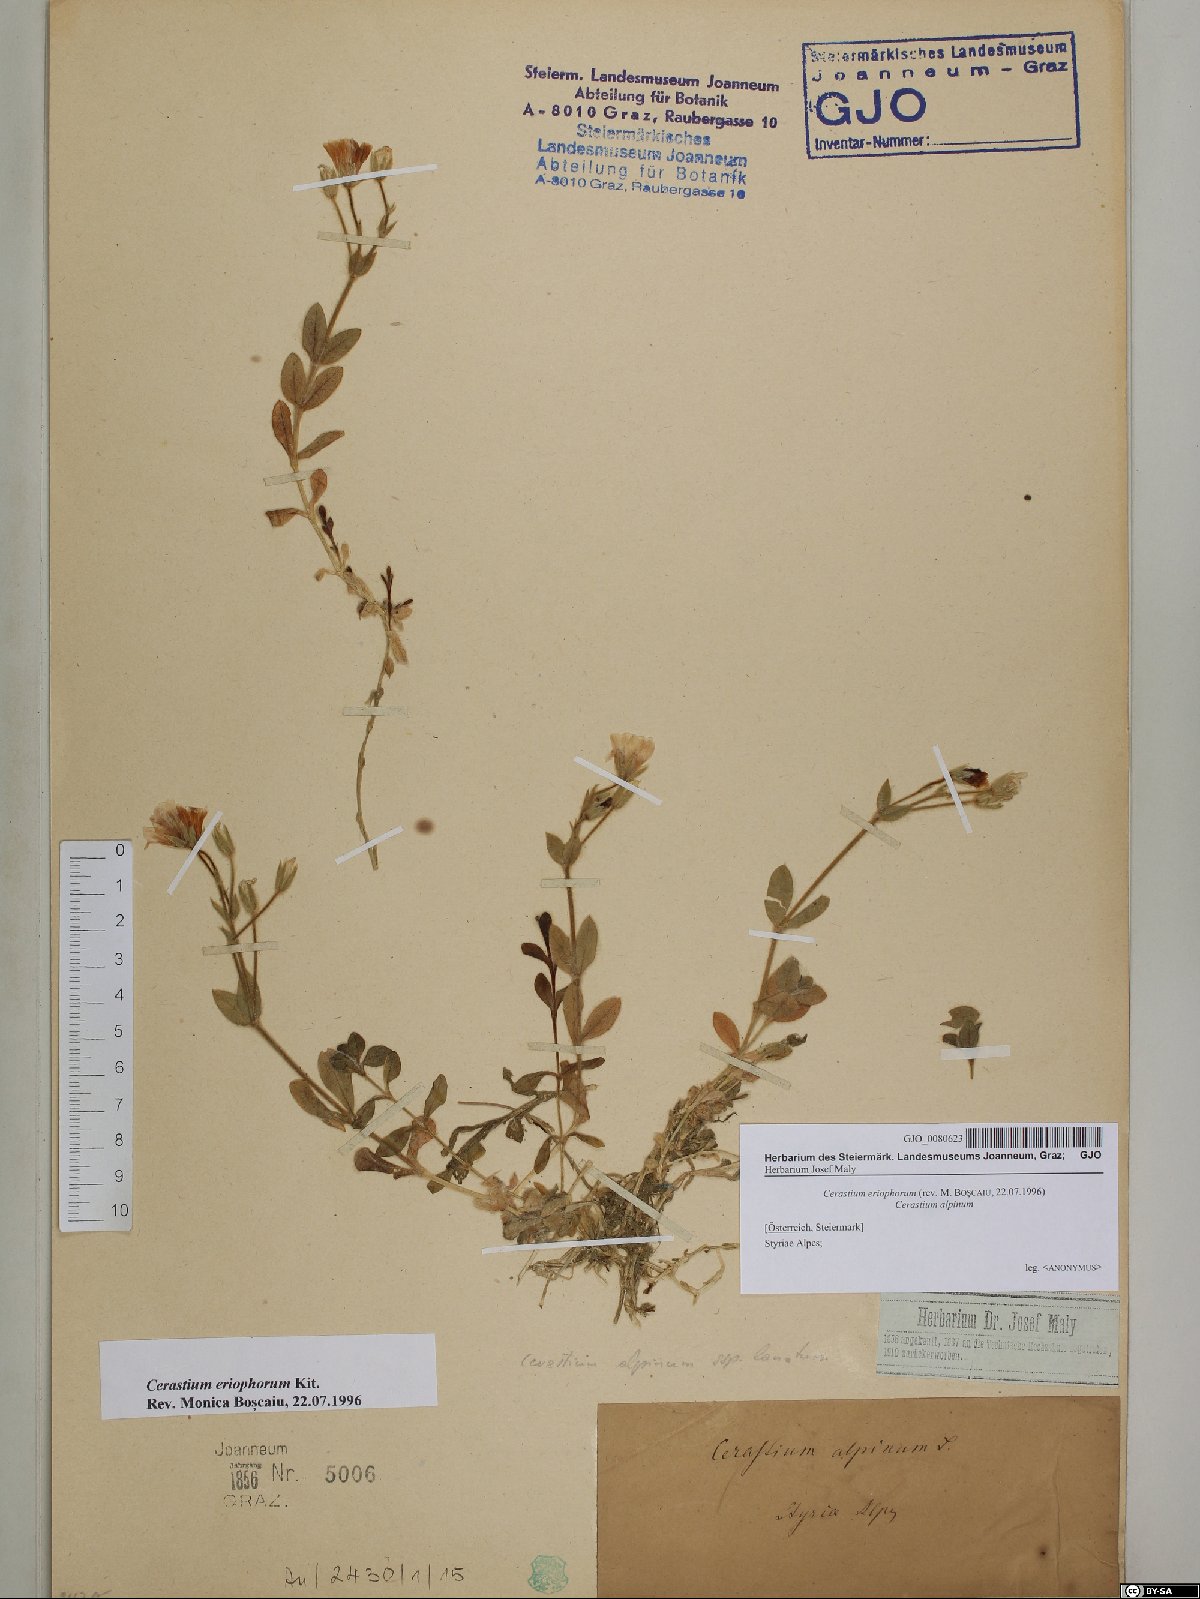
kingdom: Plantae
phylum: Tracheophyta
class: Magnoliopsida
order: Caryophyllales
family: Caryophyllaceae
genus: Cerastium
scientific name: Cerastium eriophorum
